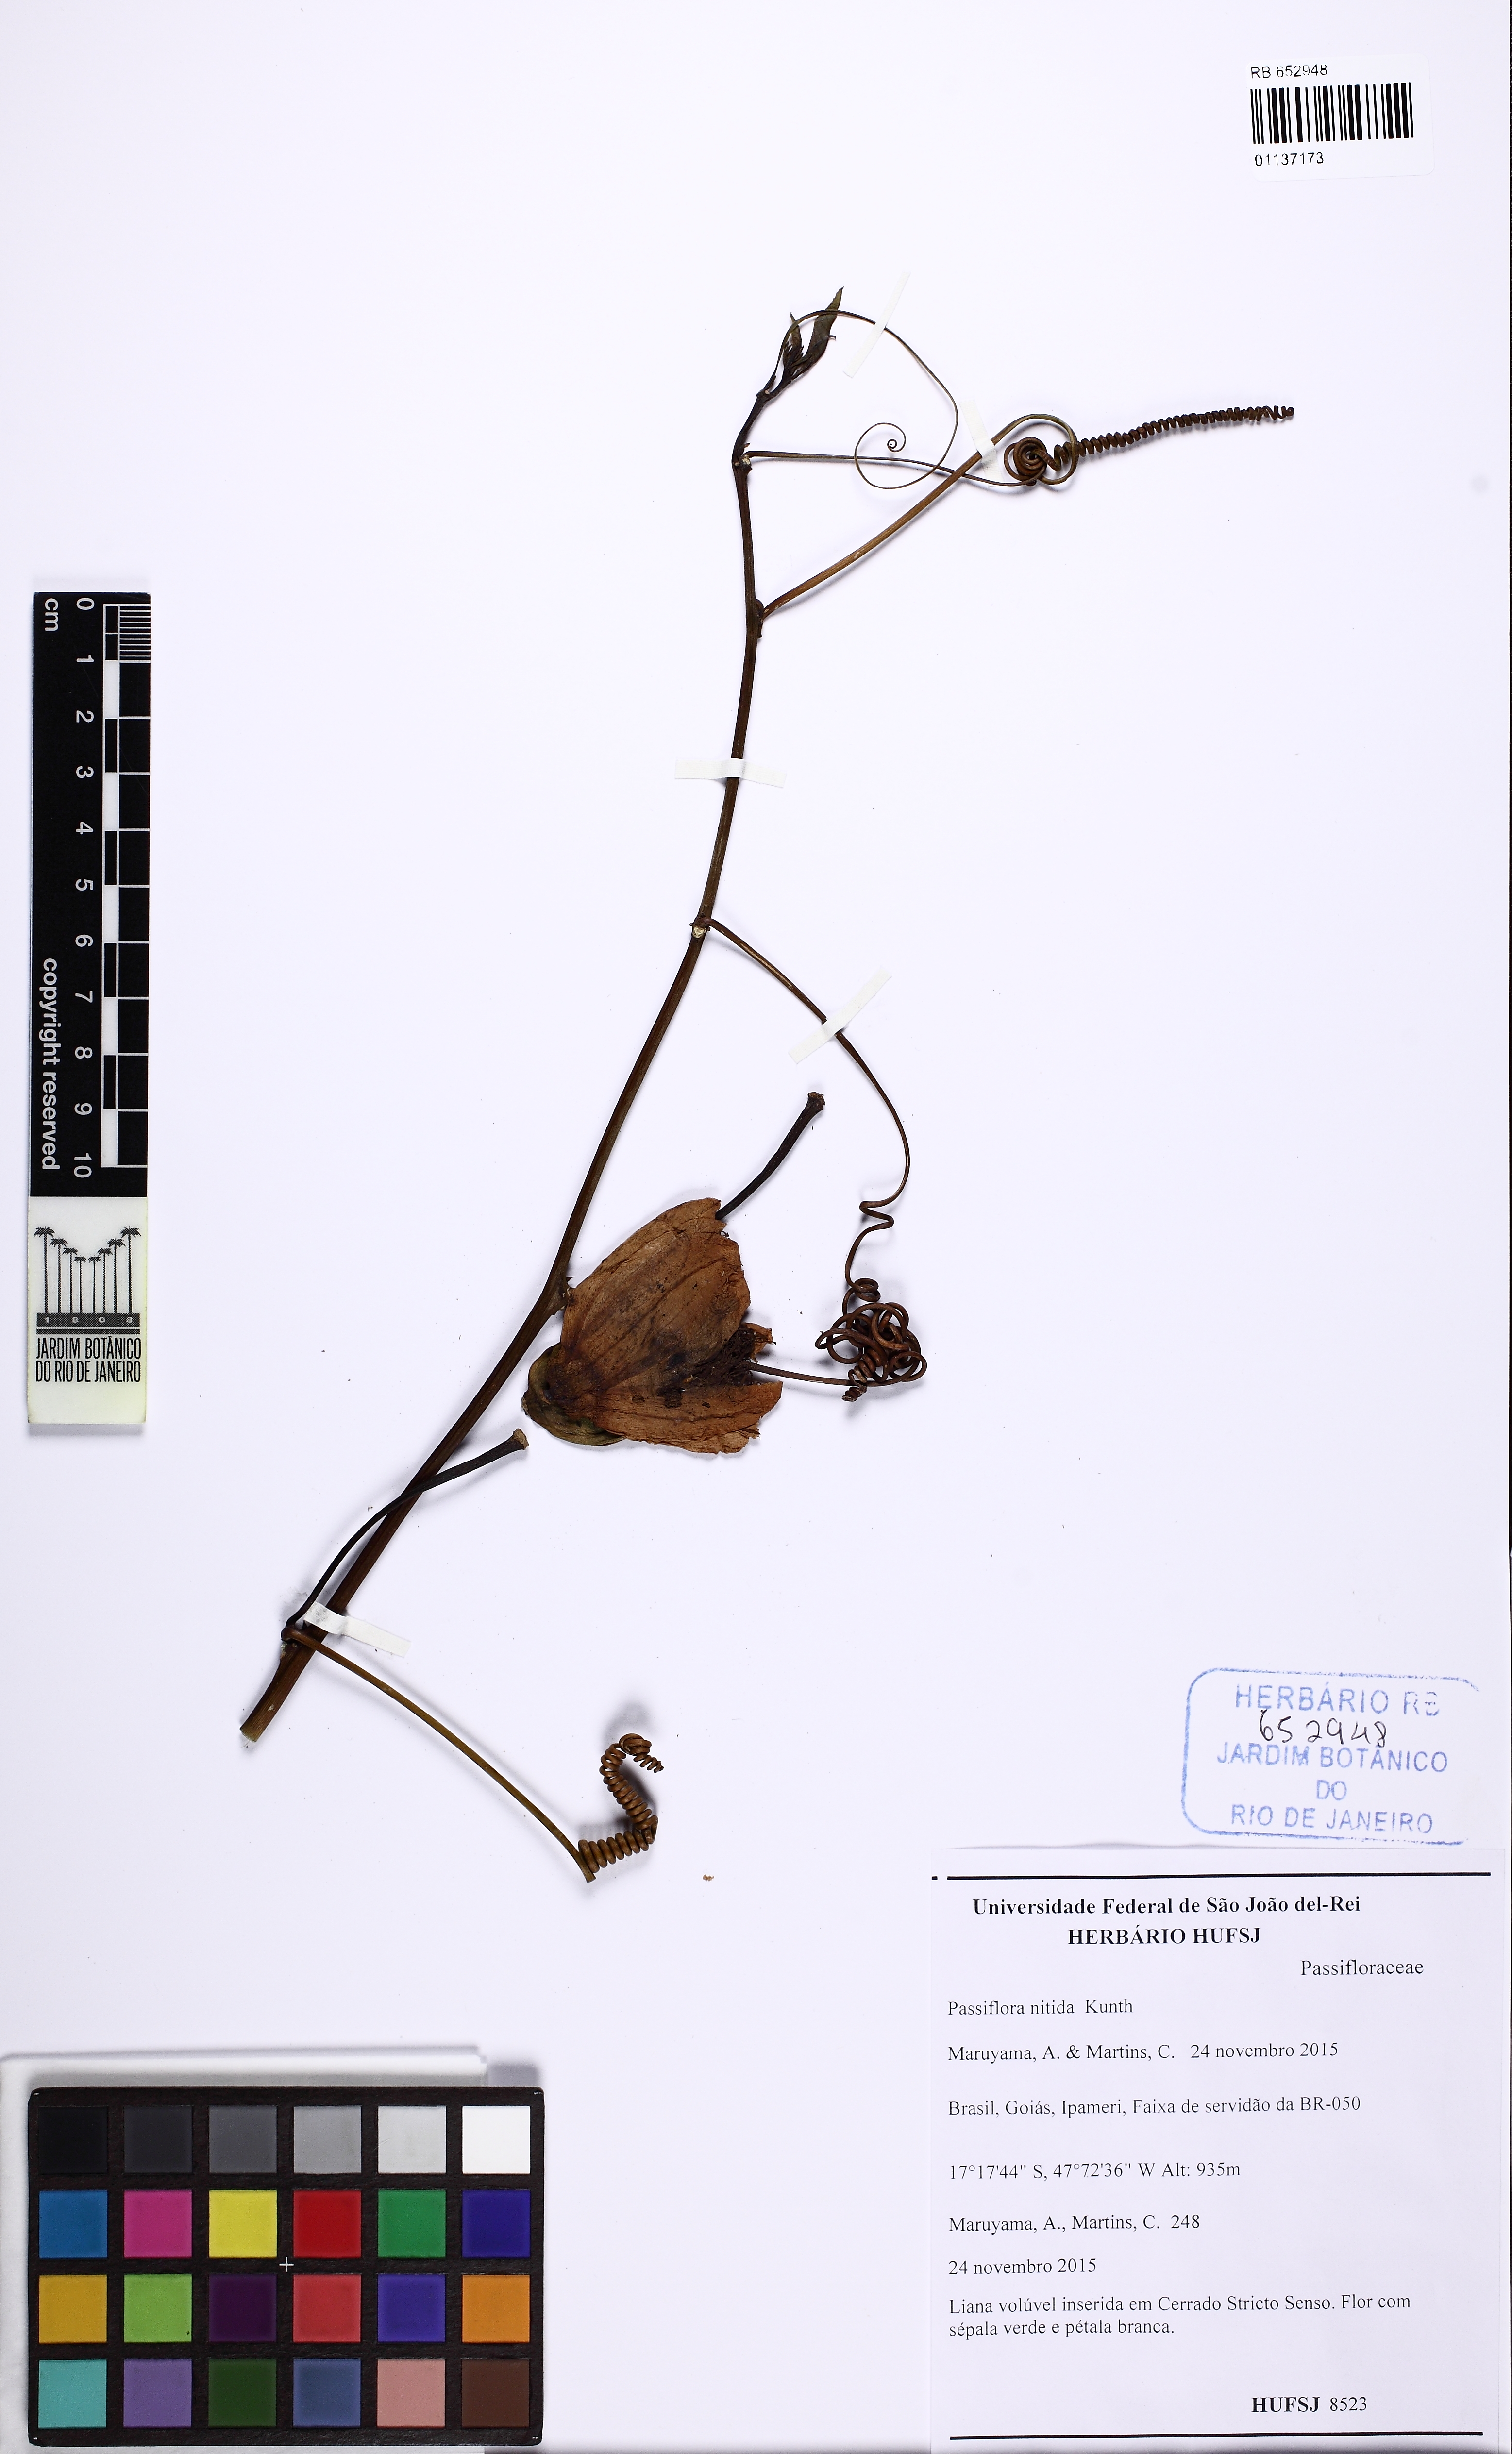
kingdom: Plantae
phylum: Tracheophyta
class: Magnoliopsida
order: Malpighiales
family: Passifloraceae
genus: Passiflora
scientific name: Passiflora nitida
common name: Bell-apple
